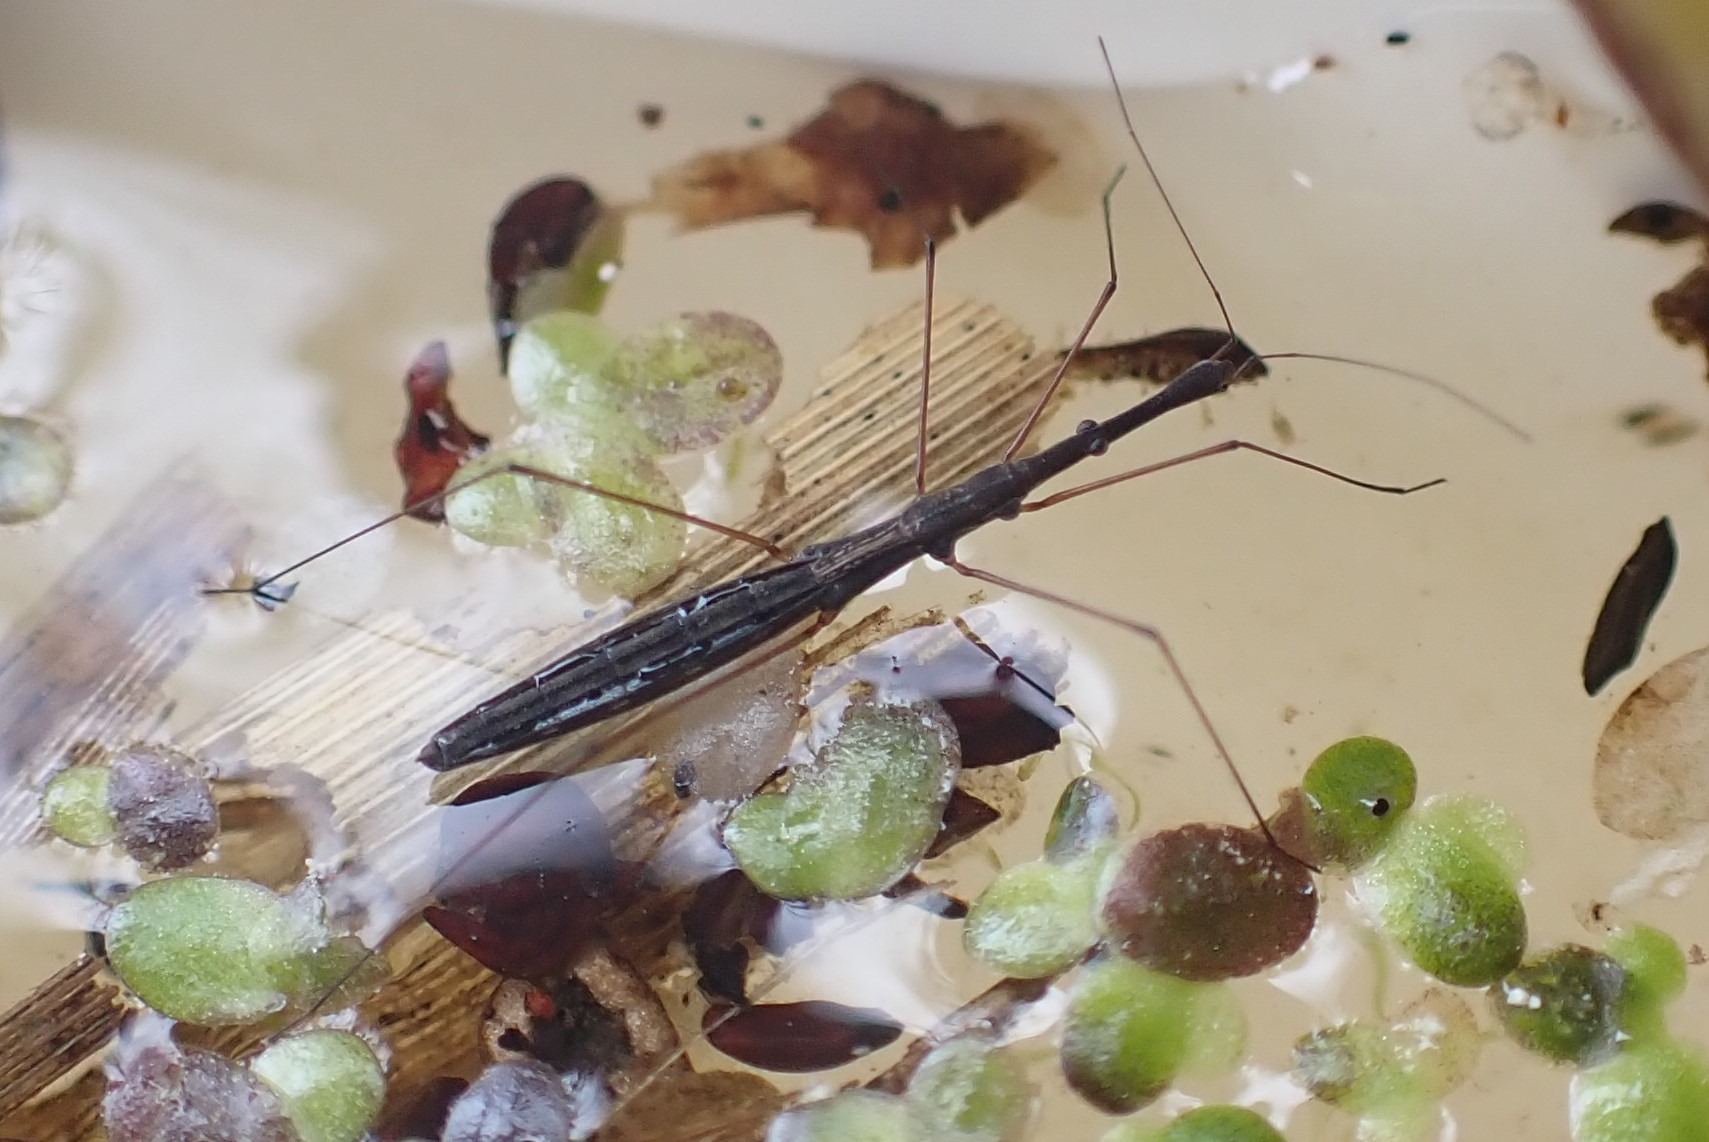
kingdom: Animalia
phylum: Arthropoda
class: Insecta
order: Hemiptera
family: Hydrometridae
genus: Hydrometra
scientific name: Hydrometra stagnorum
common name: Skrædder
